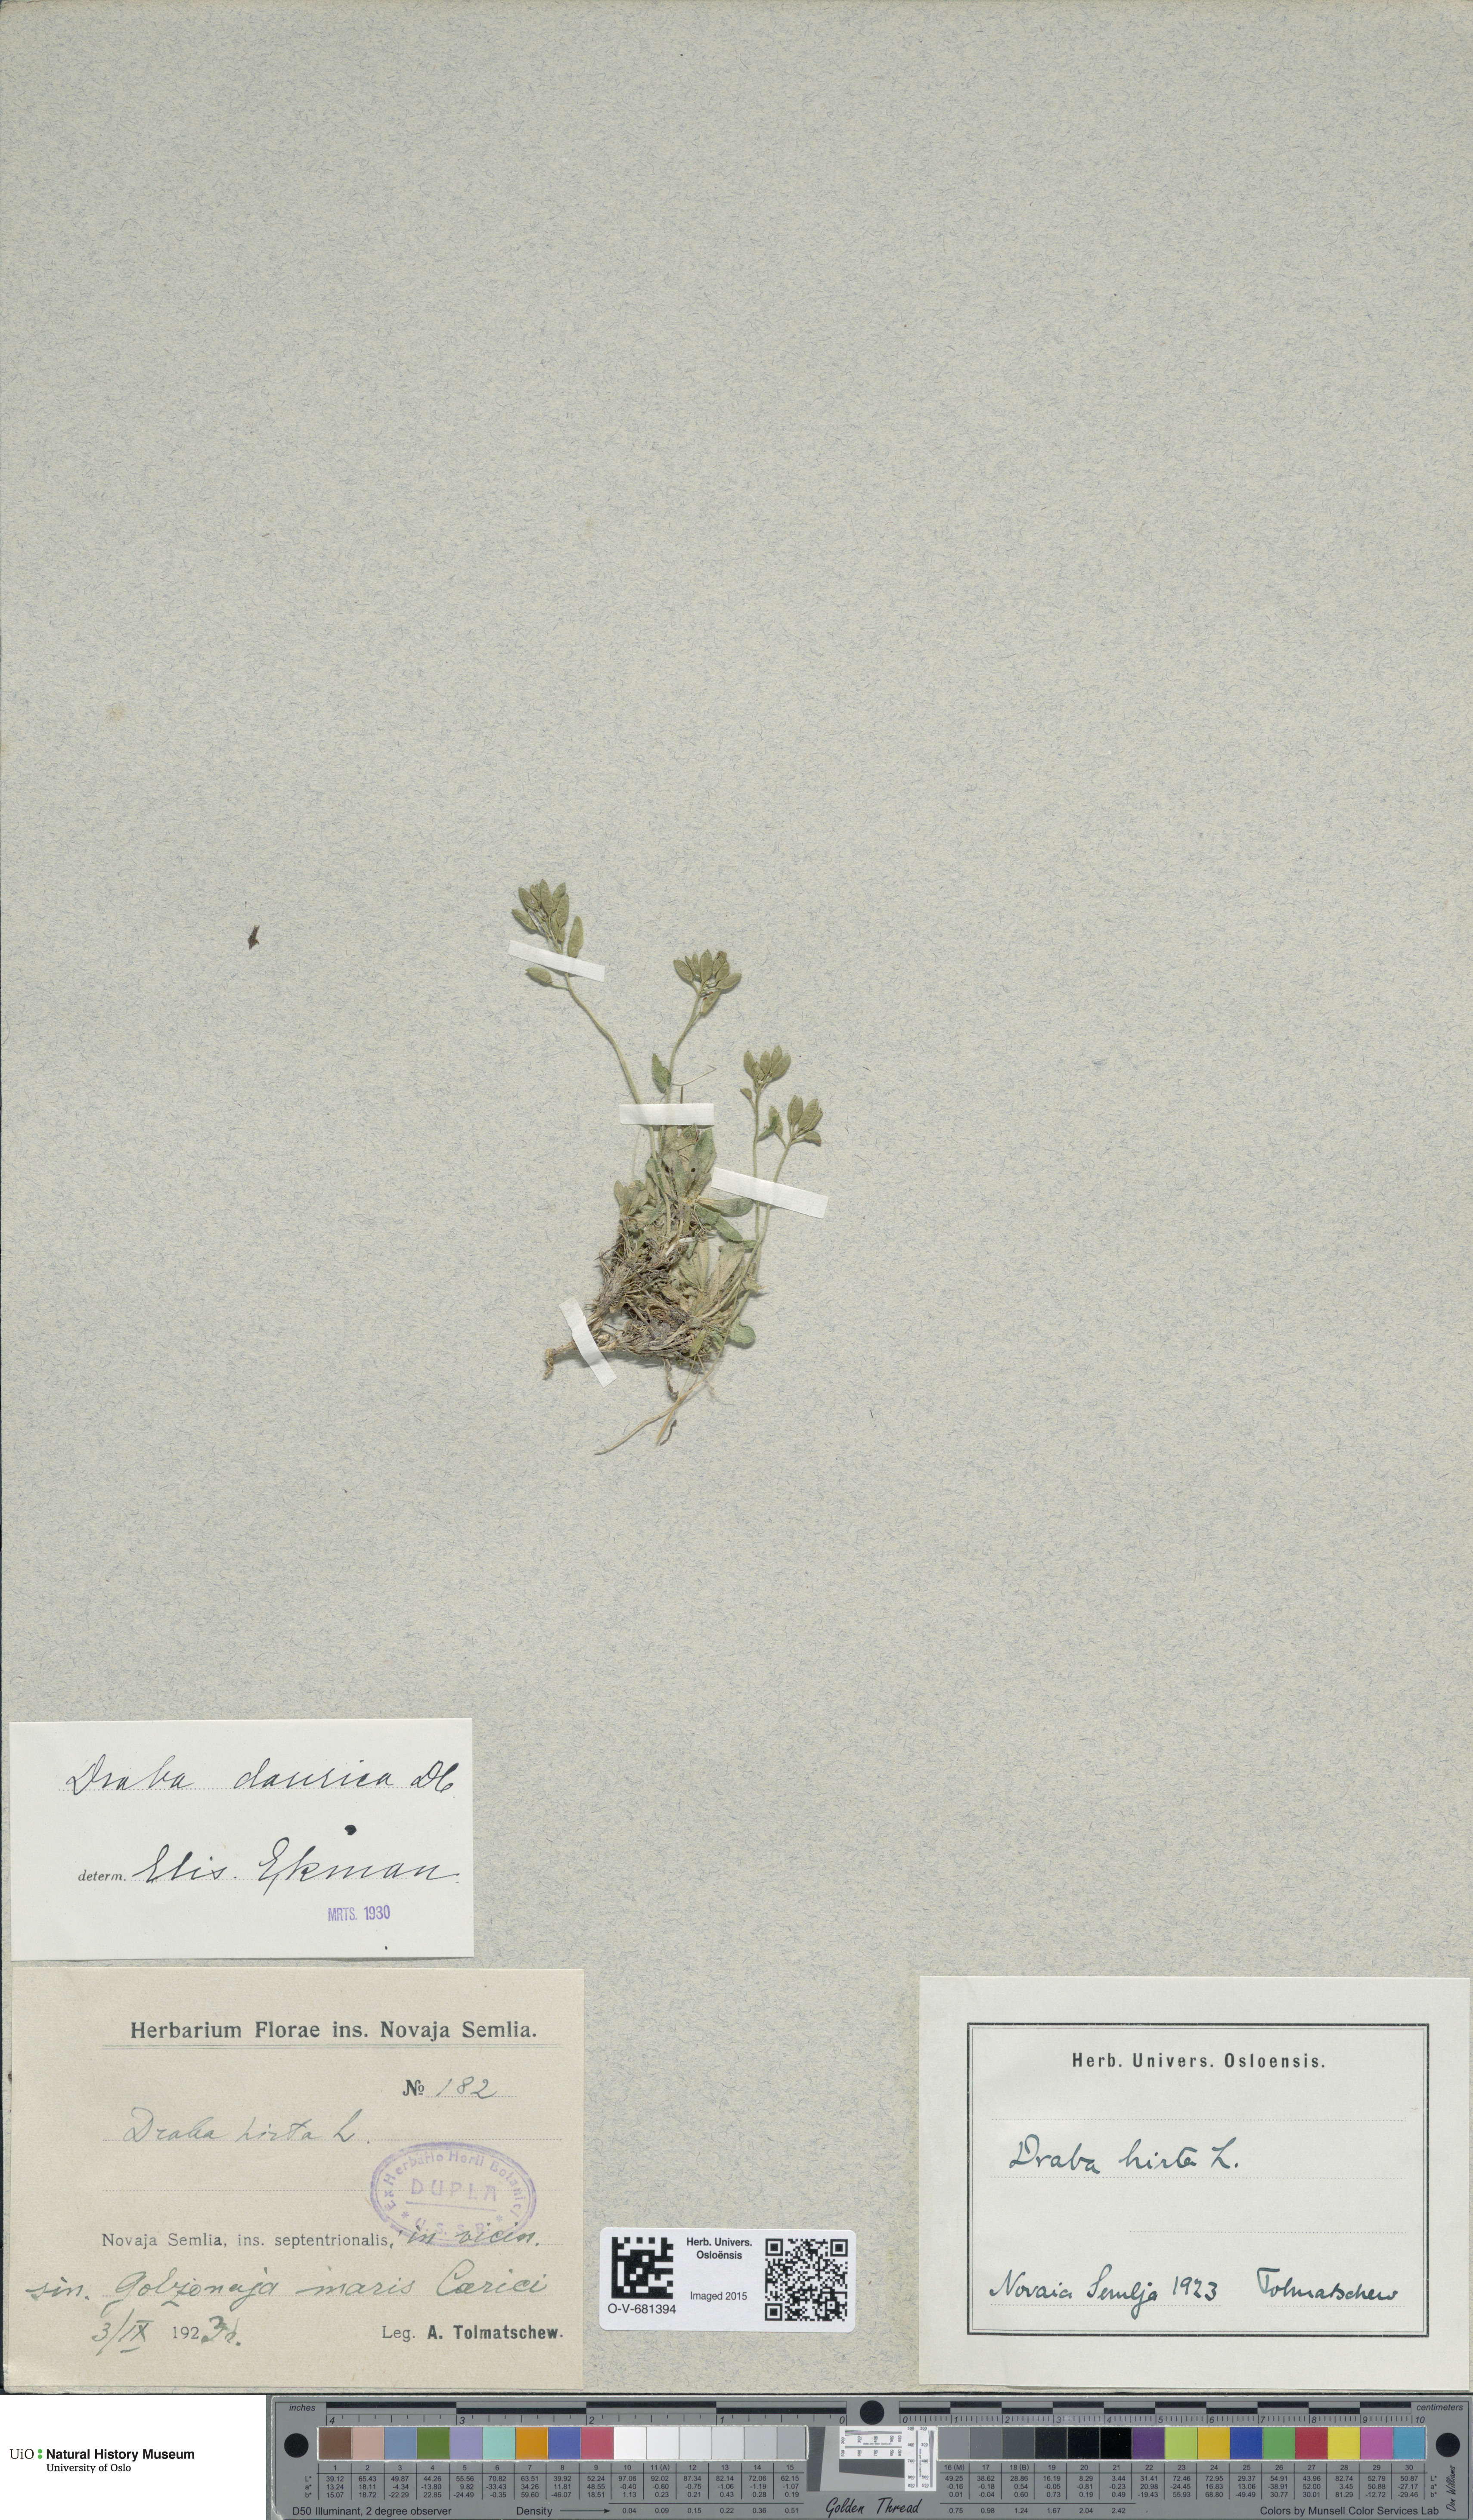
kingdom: Plantae
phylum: Tracheophyta
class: Magnoliopsida
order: Brassicales
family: Brassicaceae
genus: Draba
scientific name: Draba glabella
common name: Glaucous draba
